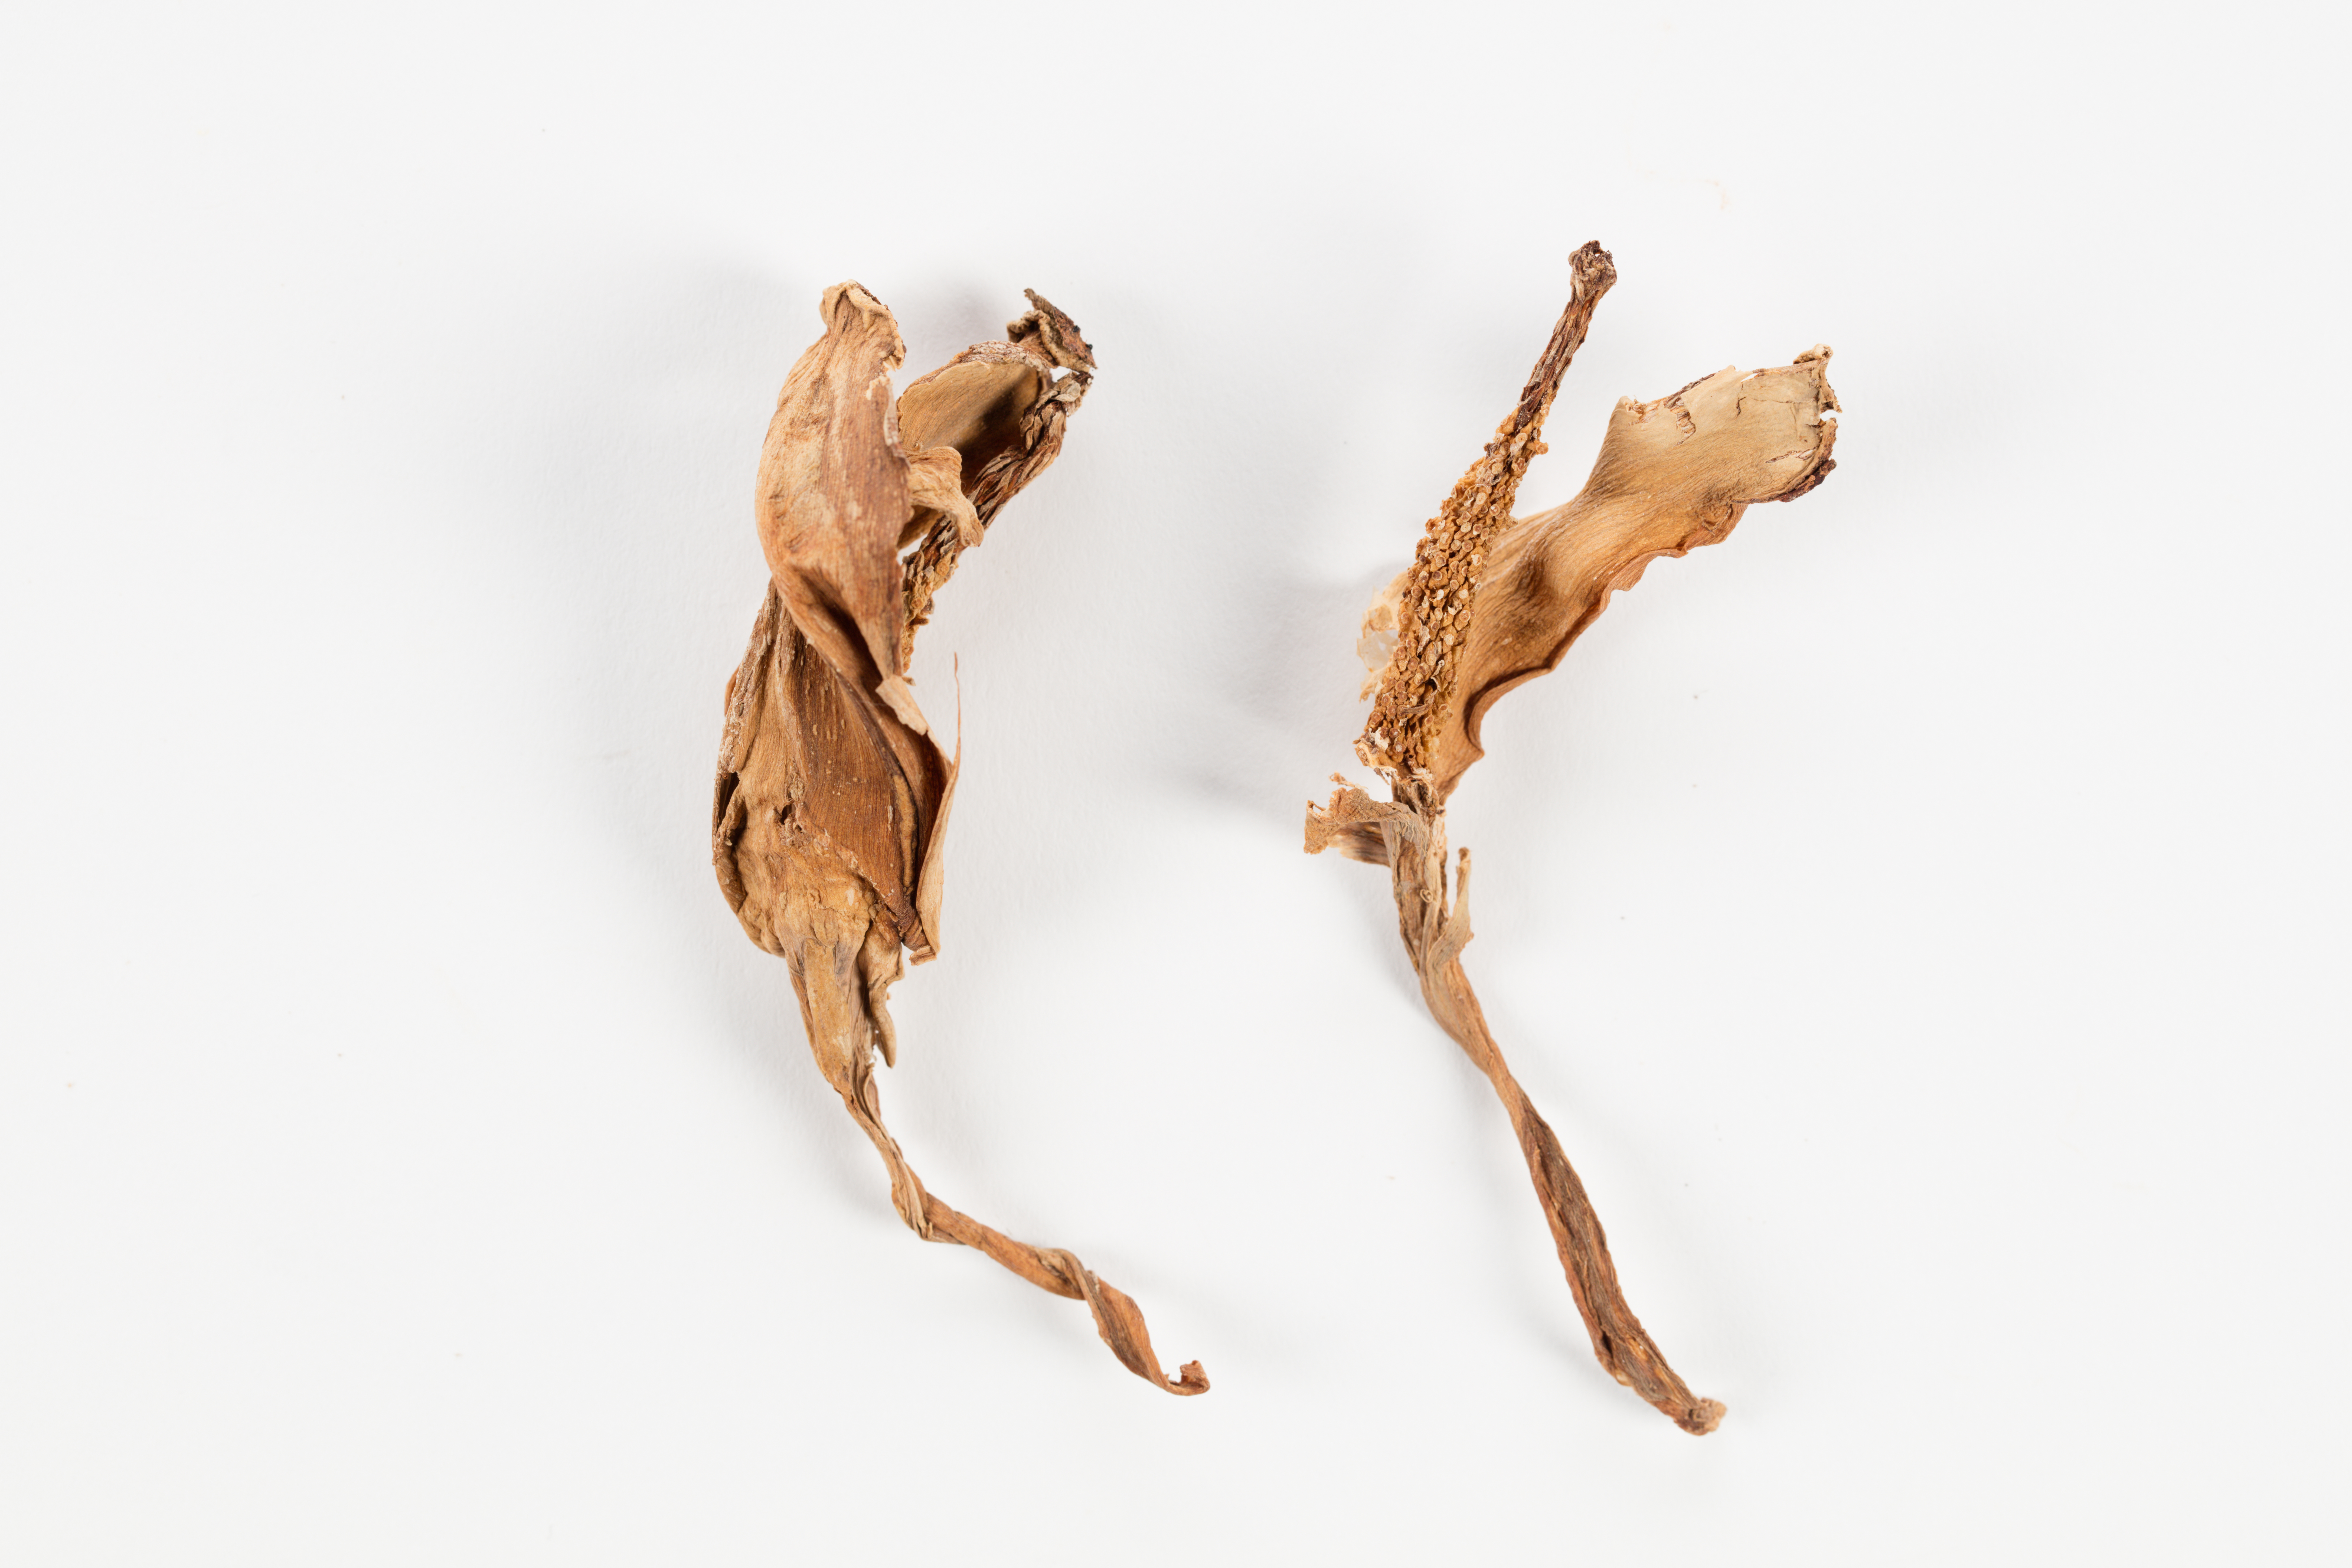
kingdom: Plantae
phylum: Tracheophyta
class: Liliopsida
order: Alismatales
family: Araceae
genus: Colocasia
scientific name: Colocasia esculenta
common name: Taro
